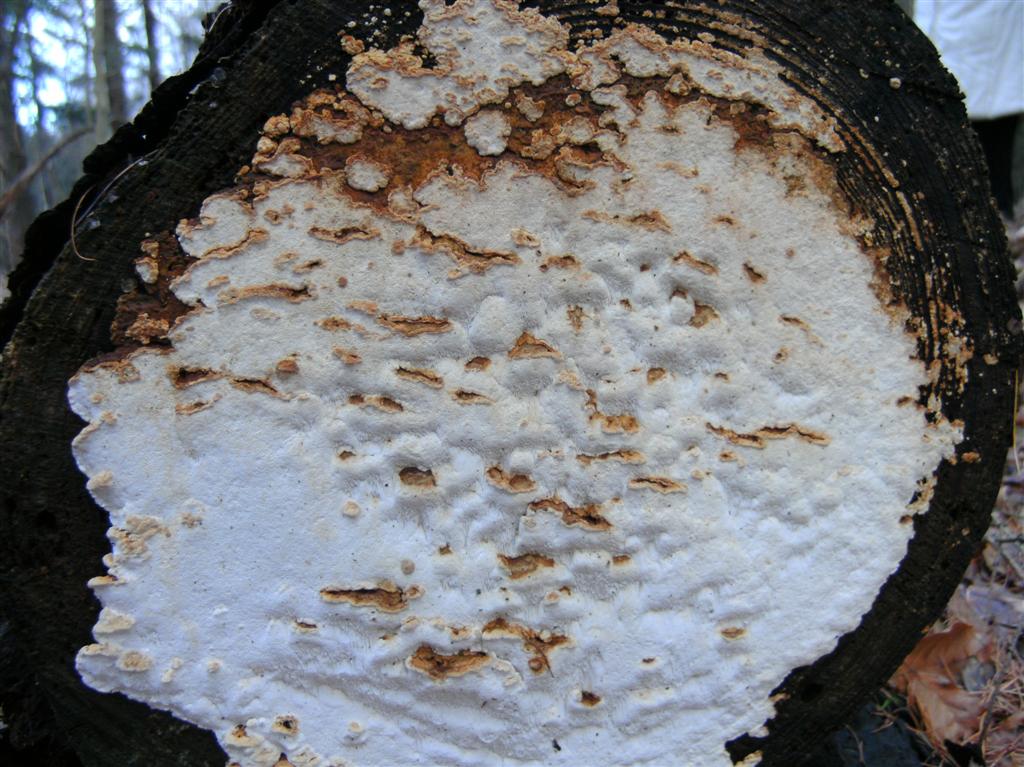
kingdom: Fungi
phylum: Basidiomycota
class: Agaricomycetes
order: Polyporales
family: Fomitopsidaceae
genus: Neoantrodia
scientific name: Neoantrodia serialis
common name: række-sejporesvamp
